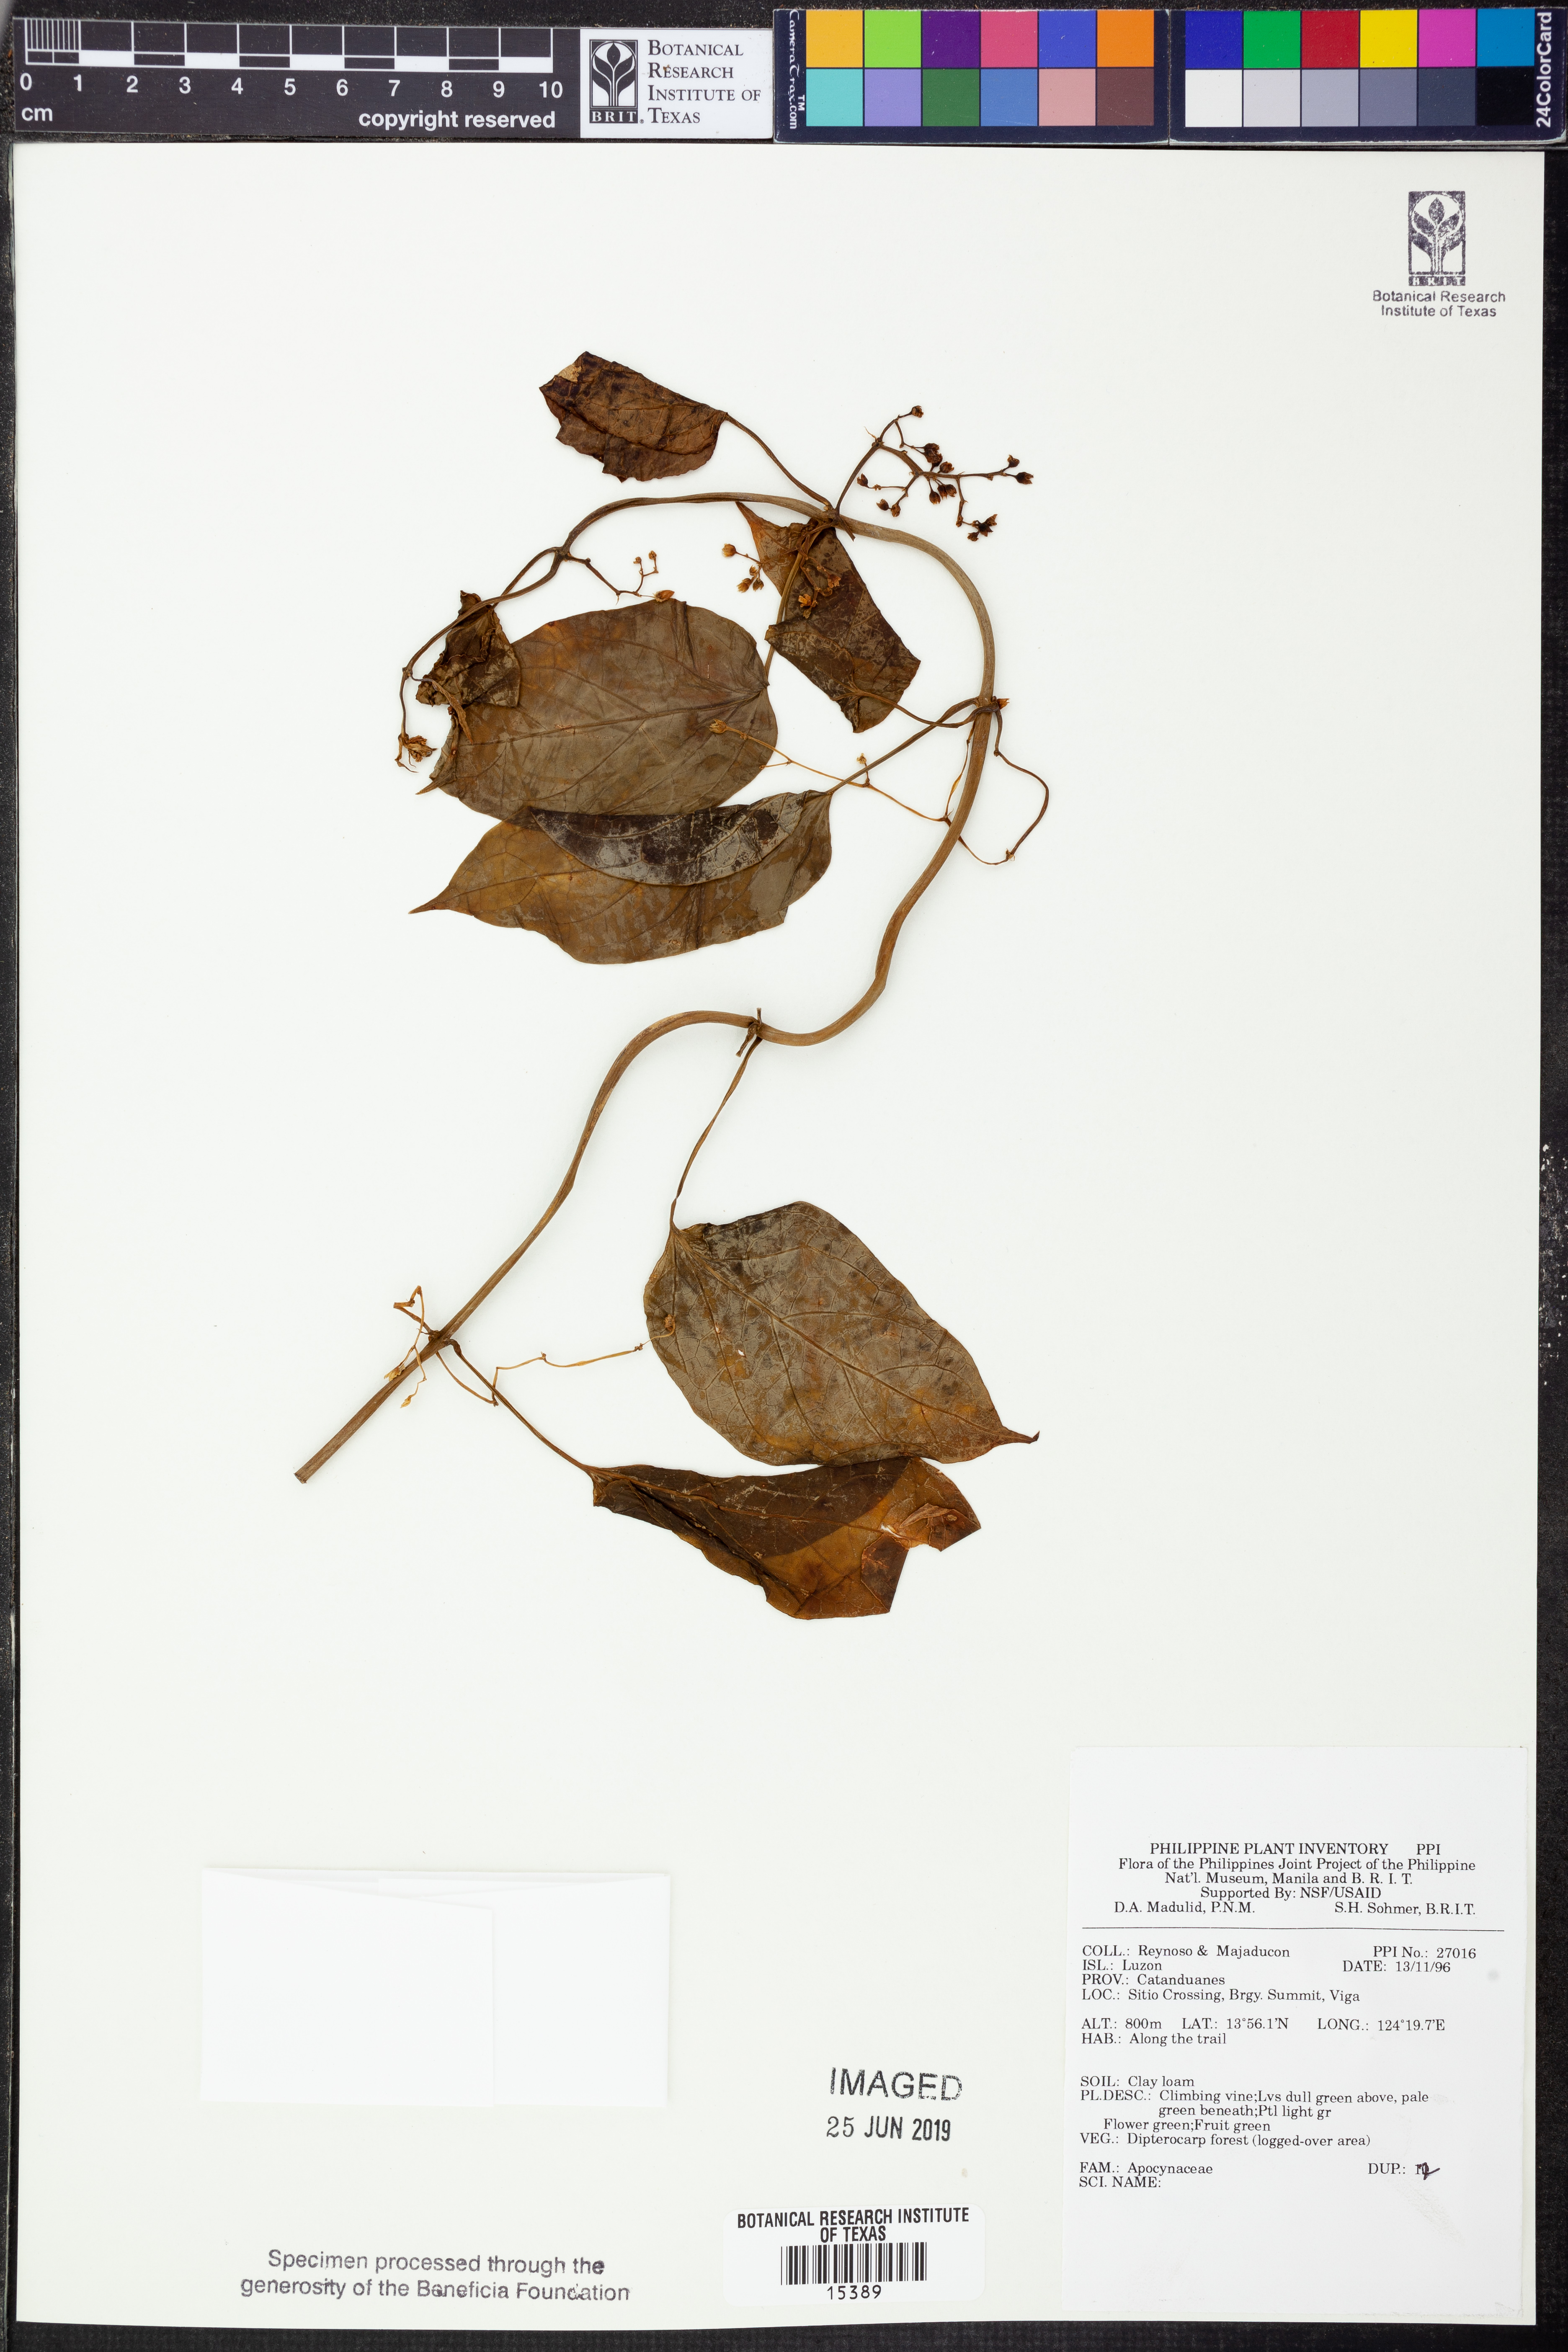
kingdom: Plantae
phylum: Tracheophyta
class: Magnoliopsida
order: Gentianales
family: Apocynaceae
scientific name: Apocynaceae
